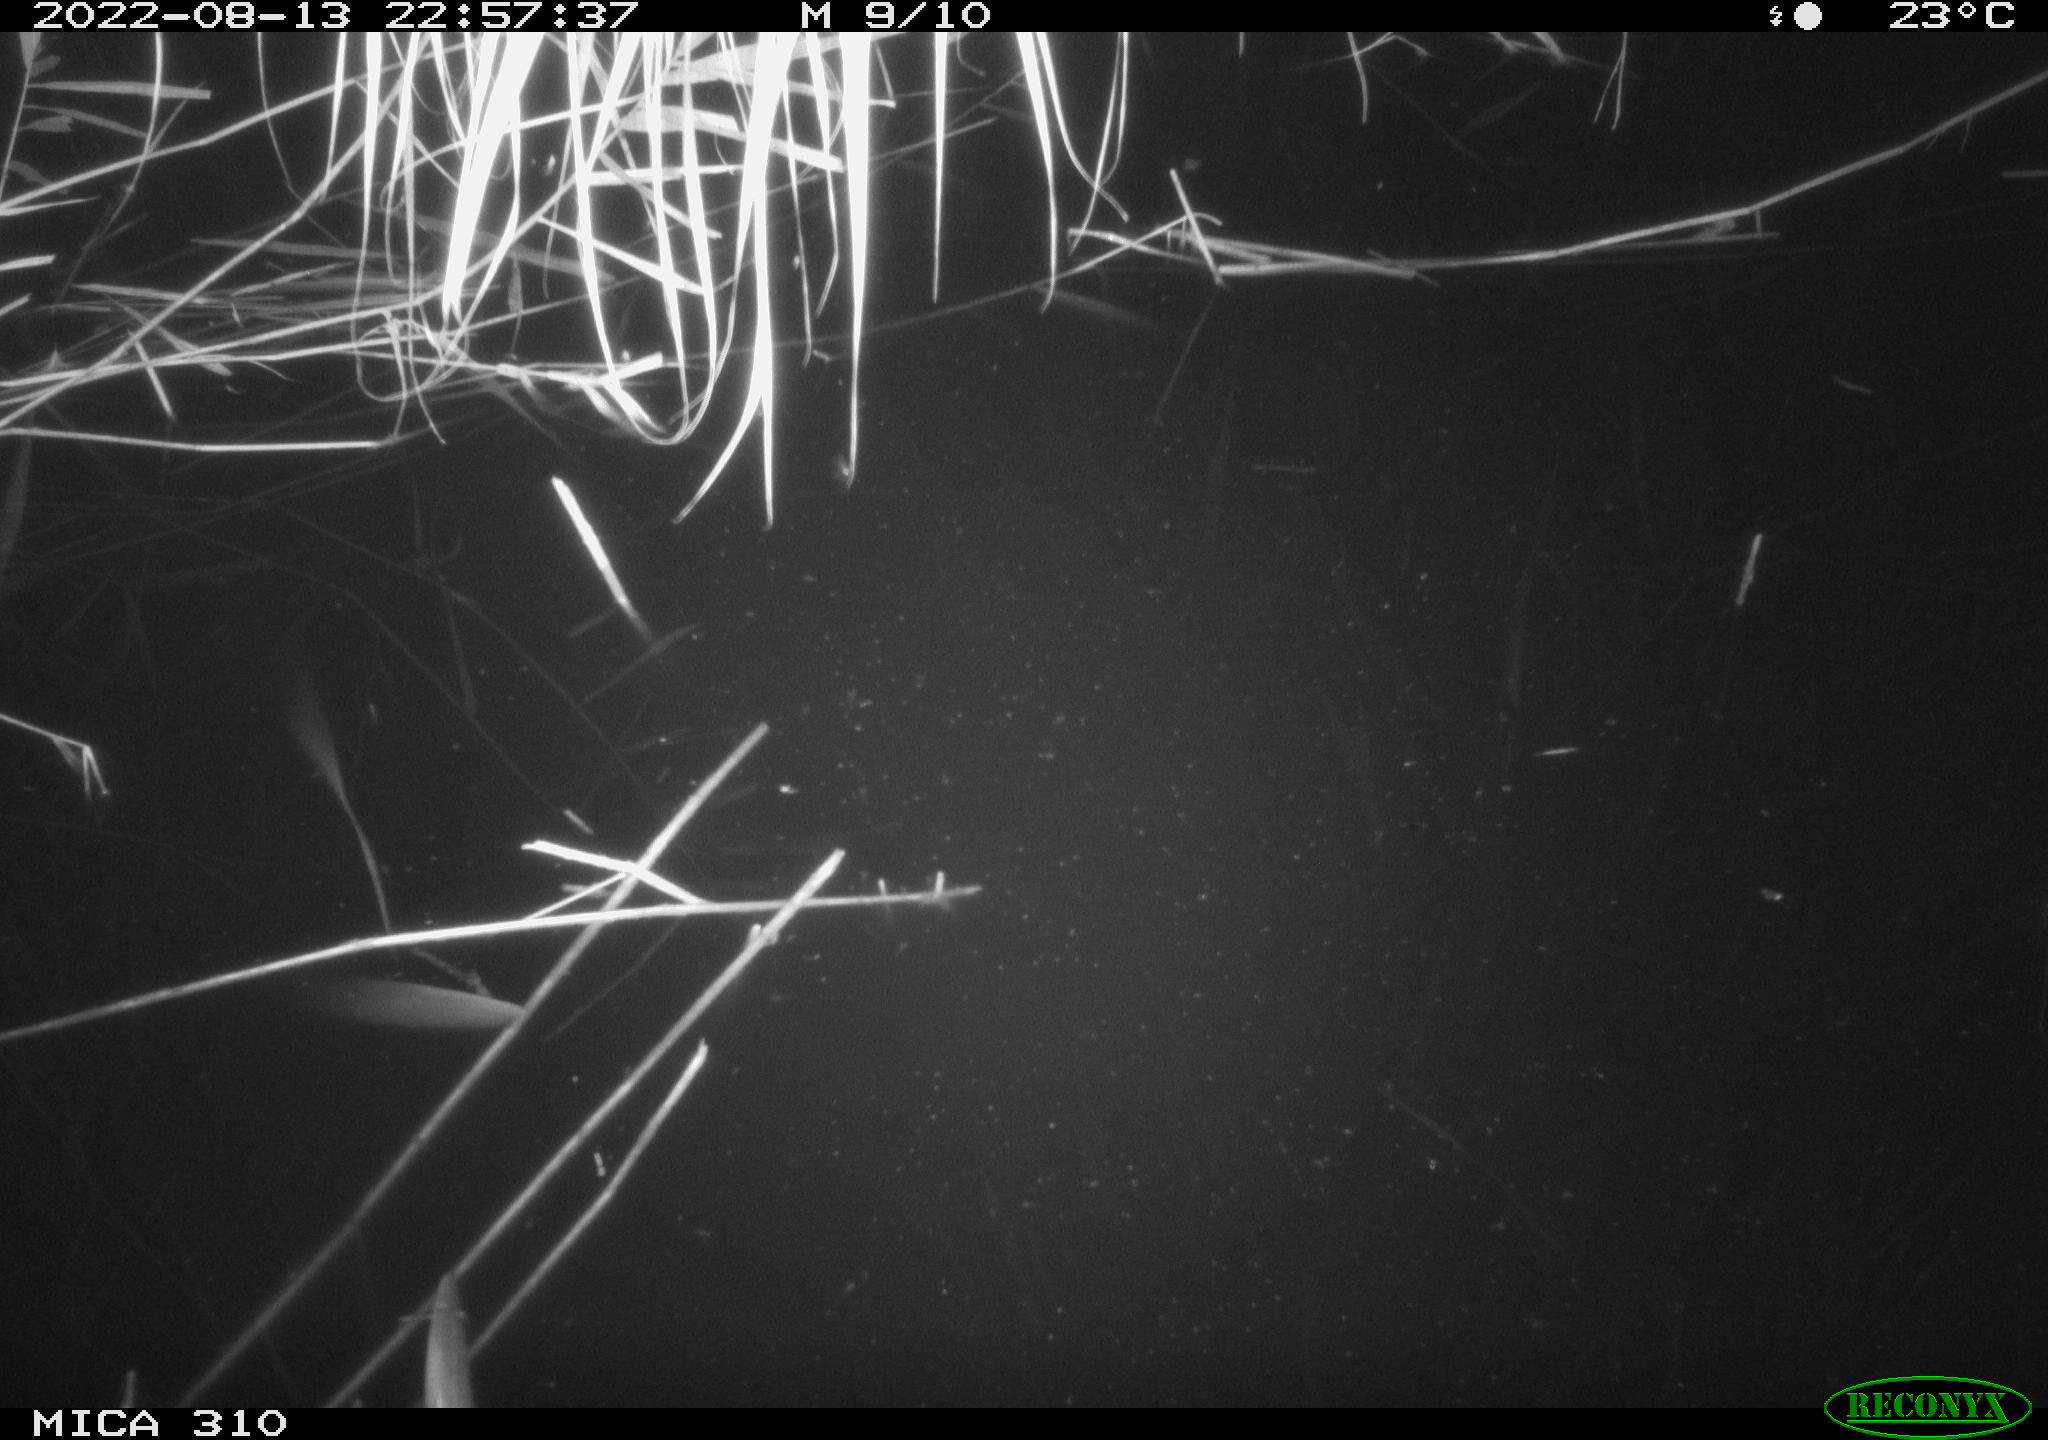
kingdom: Animalia
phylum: Chordata
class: Aves
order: Anseriformes
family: Anatidae
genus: Anas
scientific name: Anas platyrhynchos
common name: Mallard
